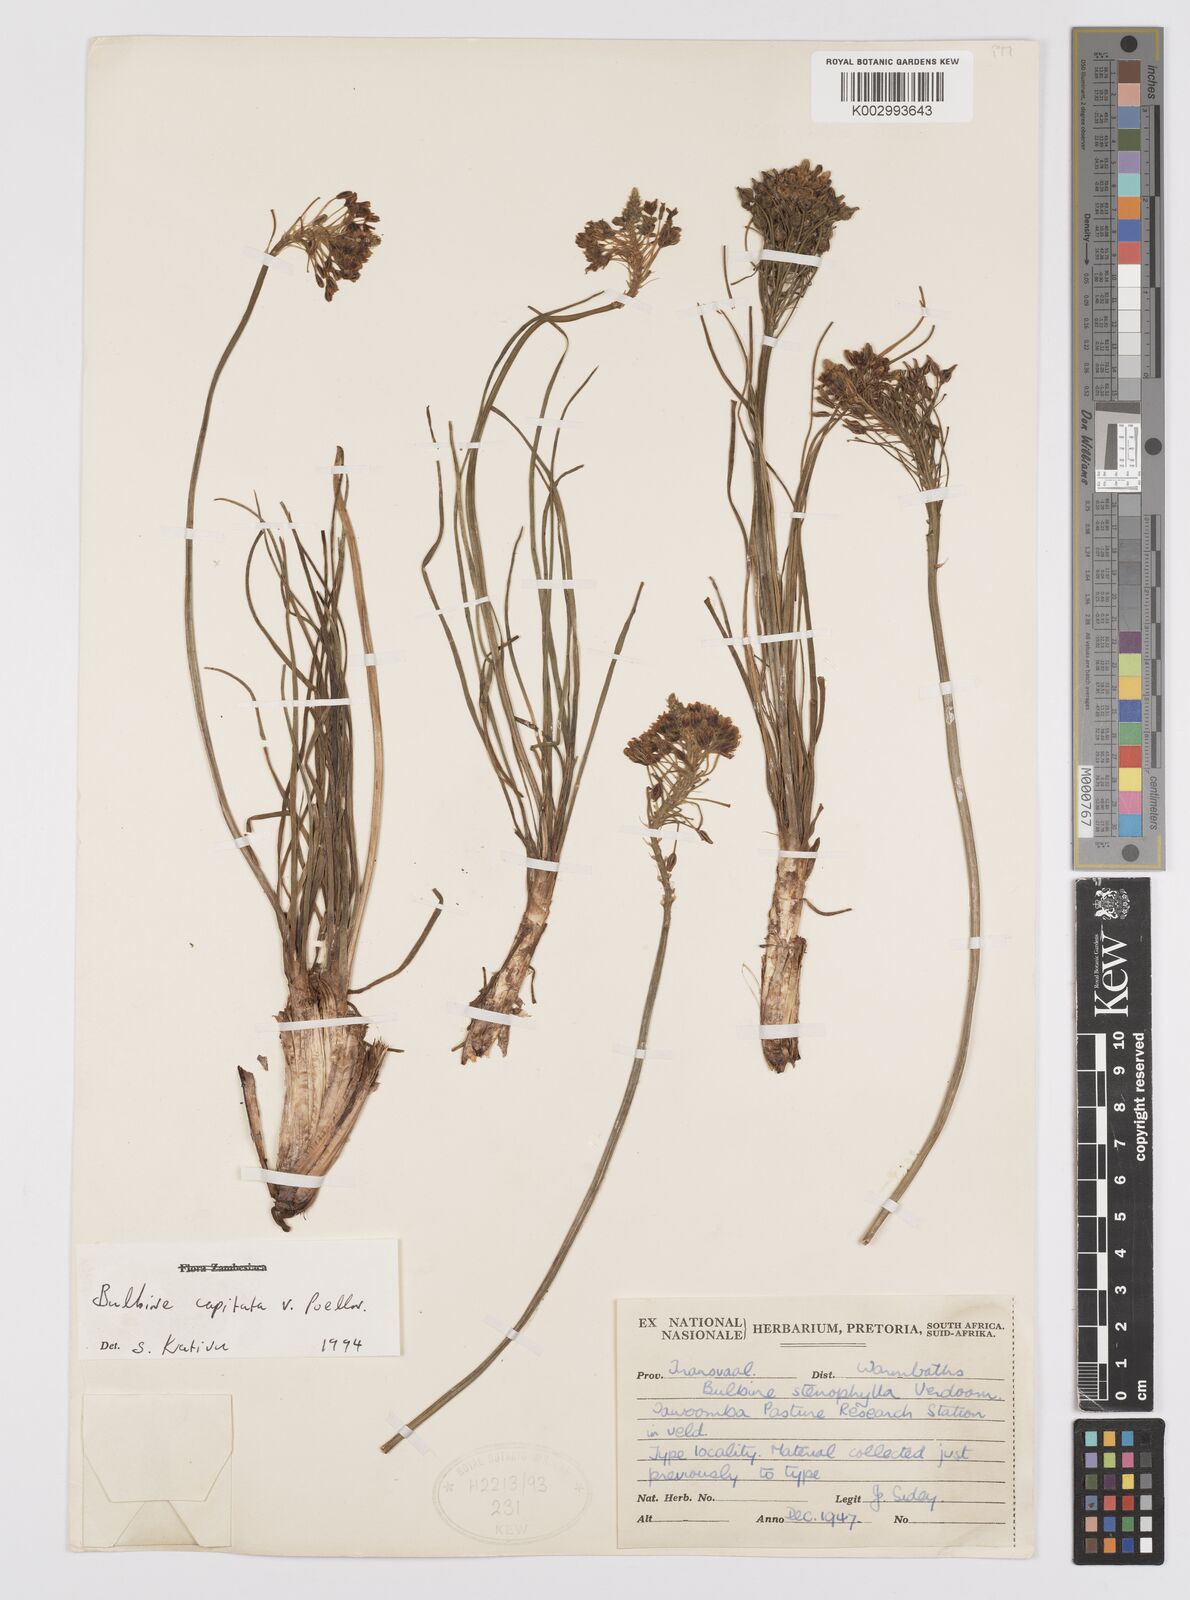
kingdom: Plantae
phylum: Tracheophyta
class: Liliopsida
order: Asparagales
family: Asphodelaceae
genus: Bulbine
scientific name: Bulbine capitata
